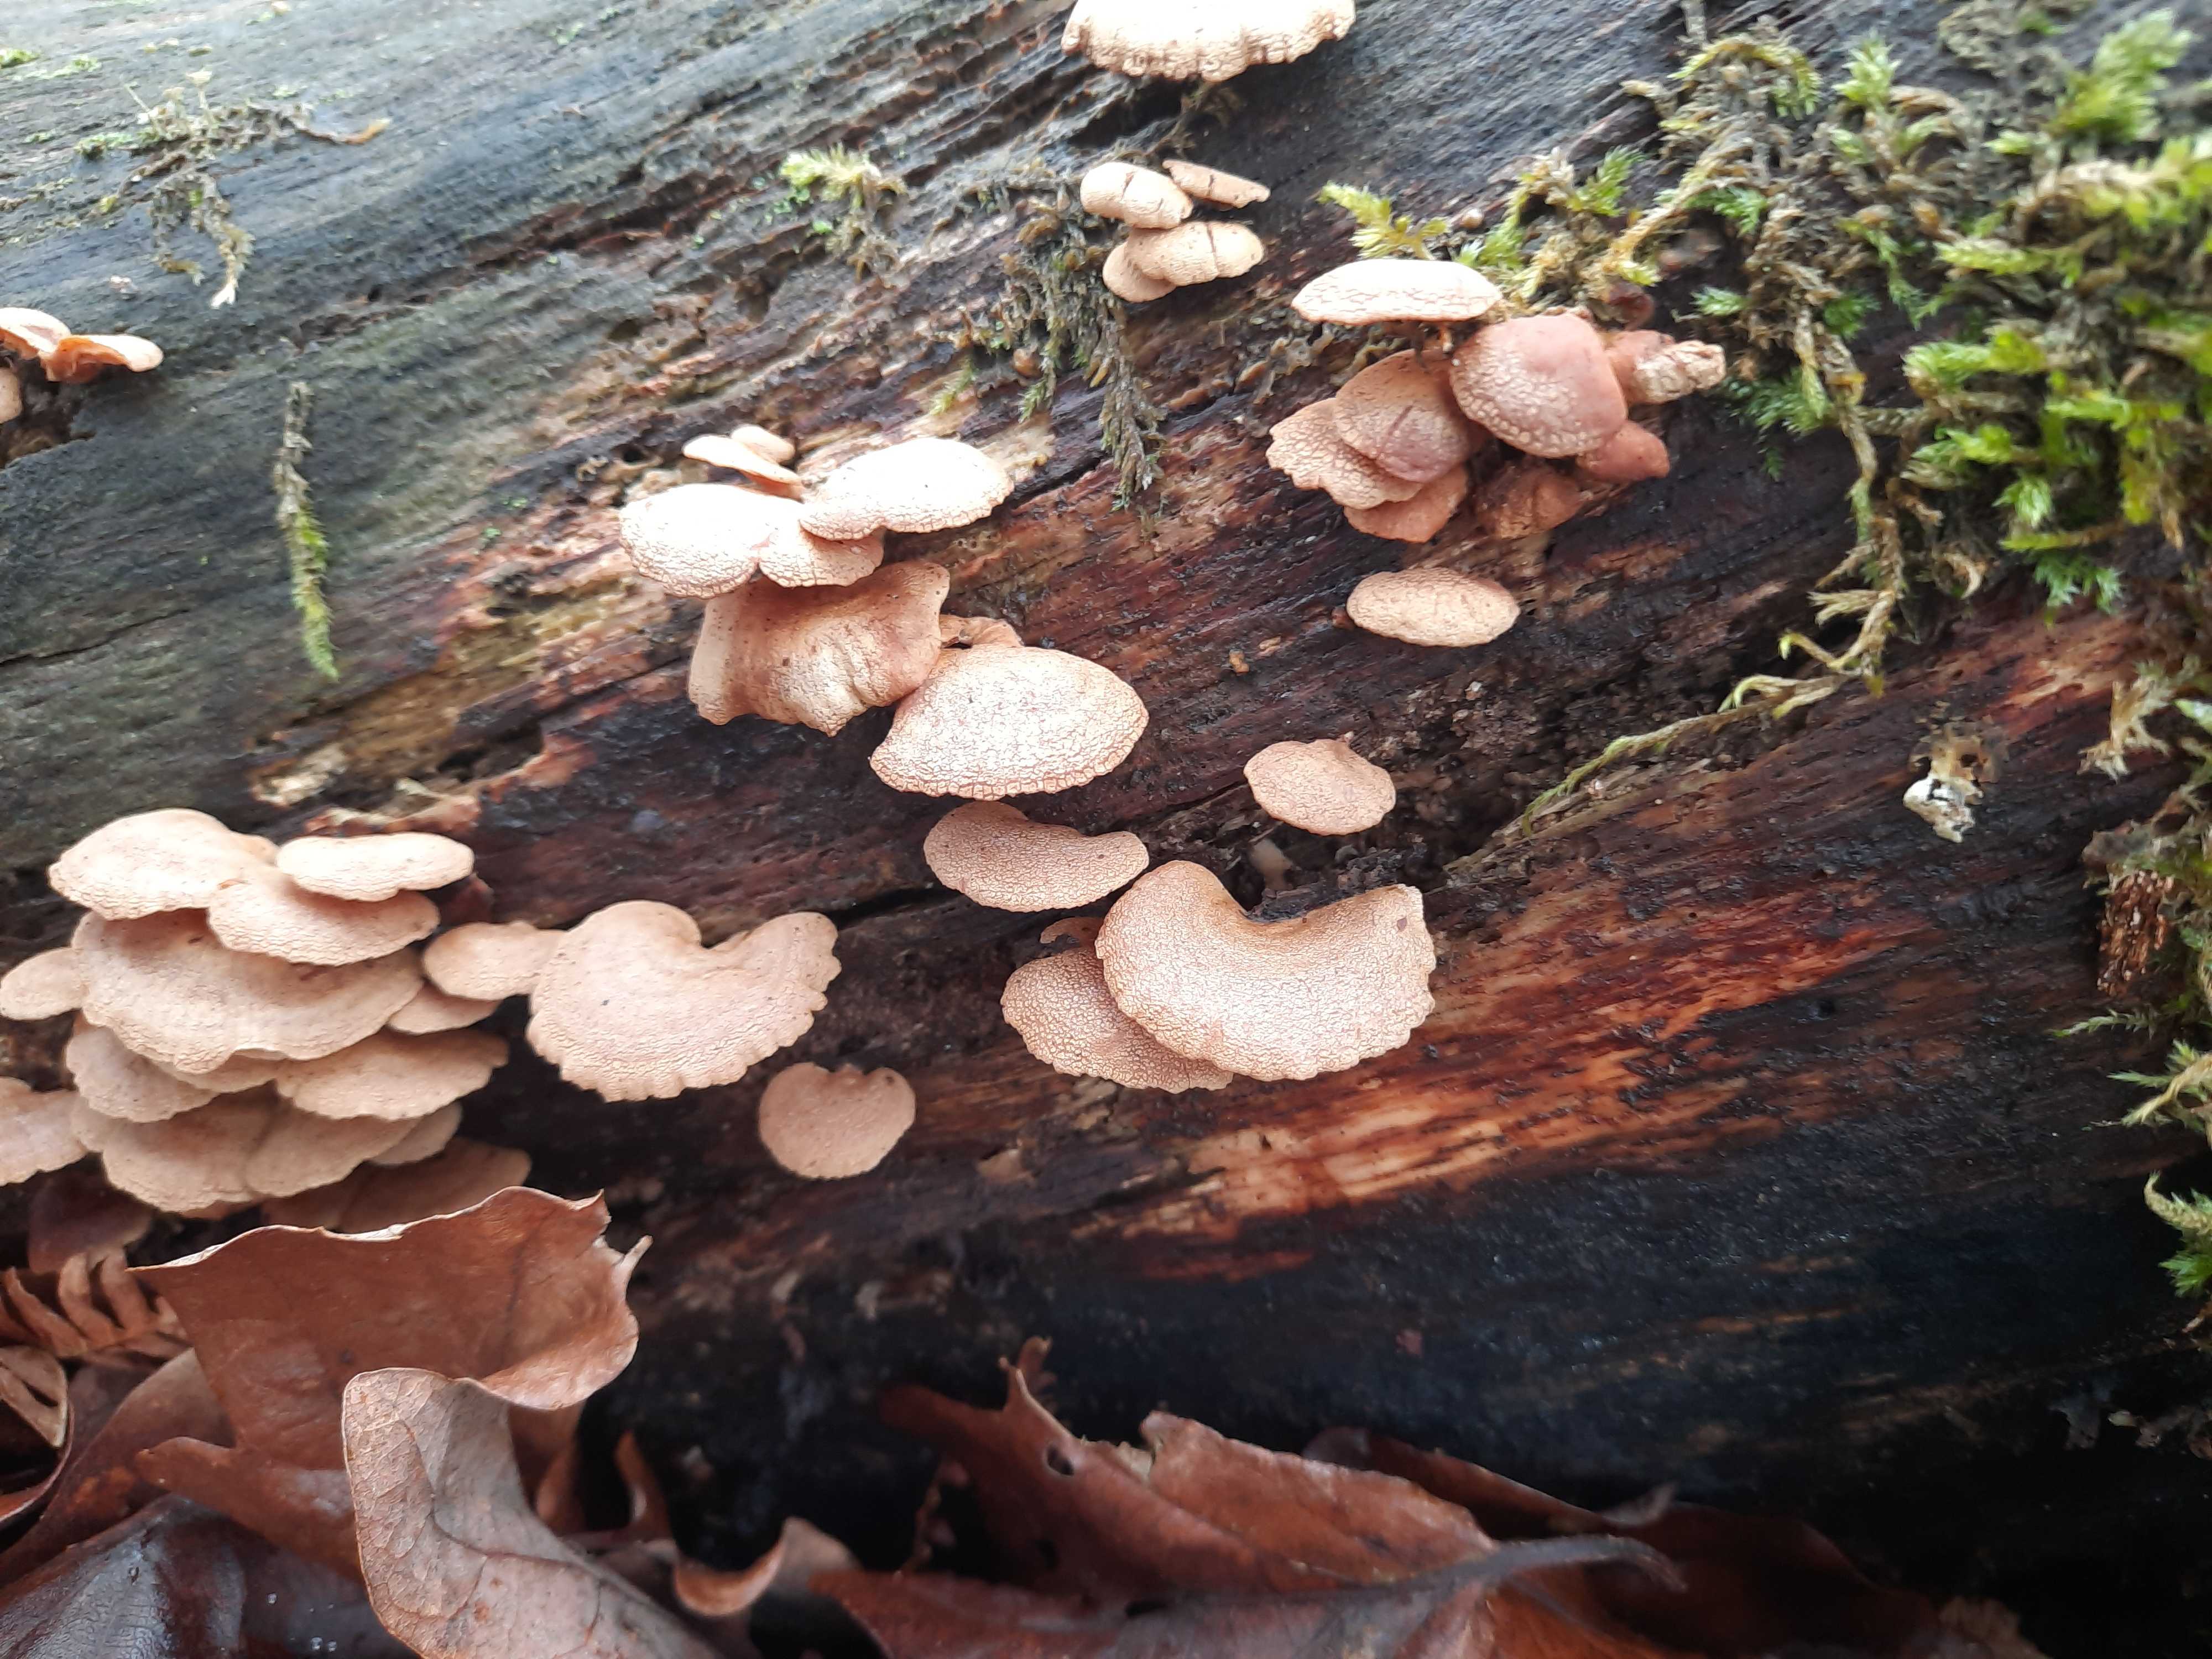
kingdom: Fungi
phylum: Basidiomycota
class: Agaricomycetes
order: Agaricales
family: Mycenaceae
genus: Panellus
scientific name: Panellus stipticus
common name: kliddet epaulethat
